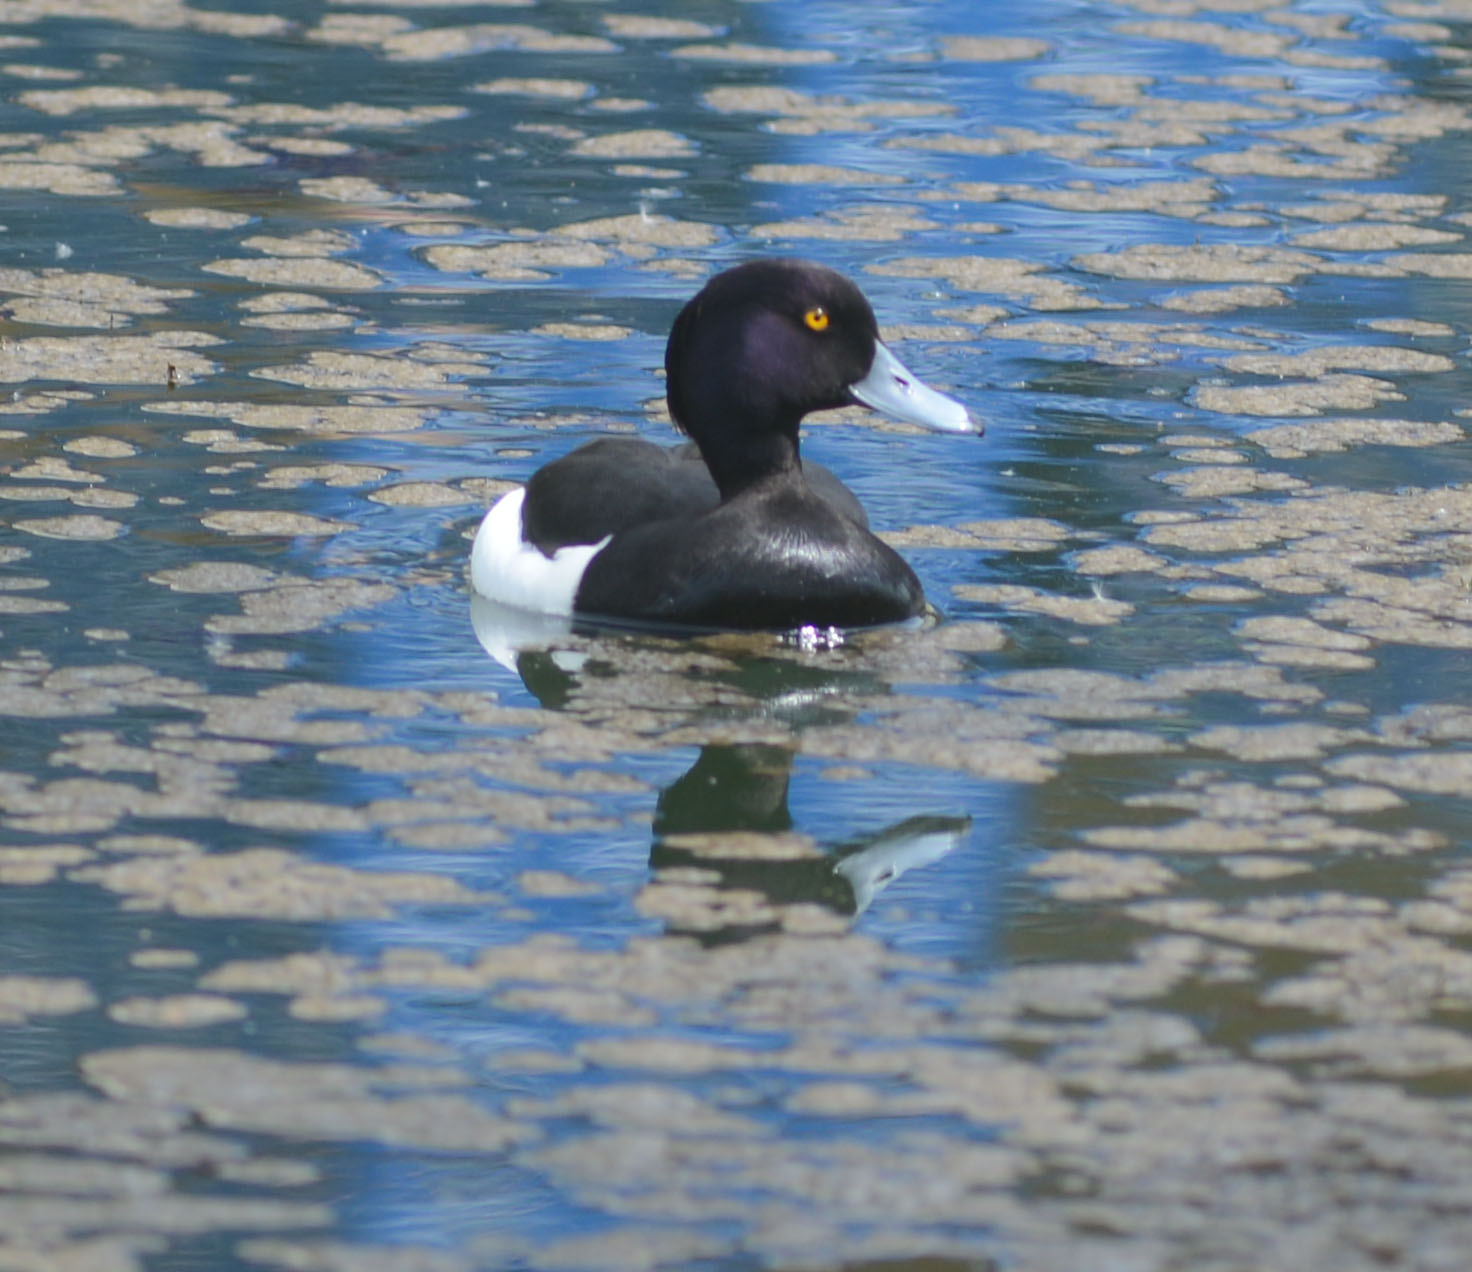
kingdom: Animalia
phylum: Chordata
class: Aves
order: Anseriformes
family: Anatidae
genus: Aythya
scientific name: Aythya fuligula
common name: Tufted duck
